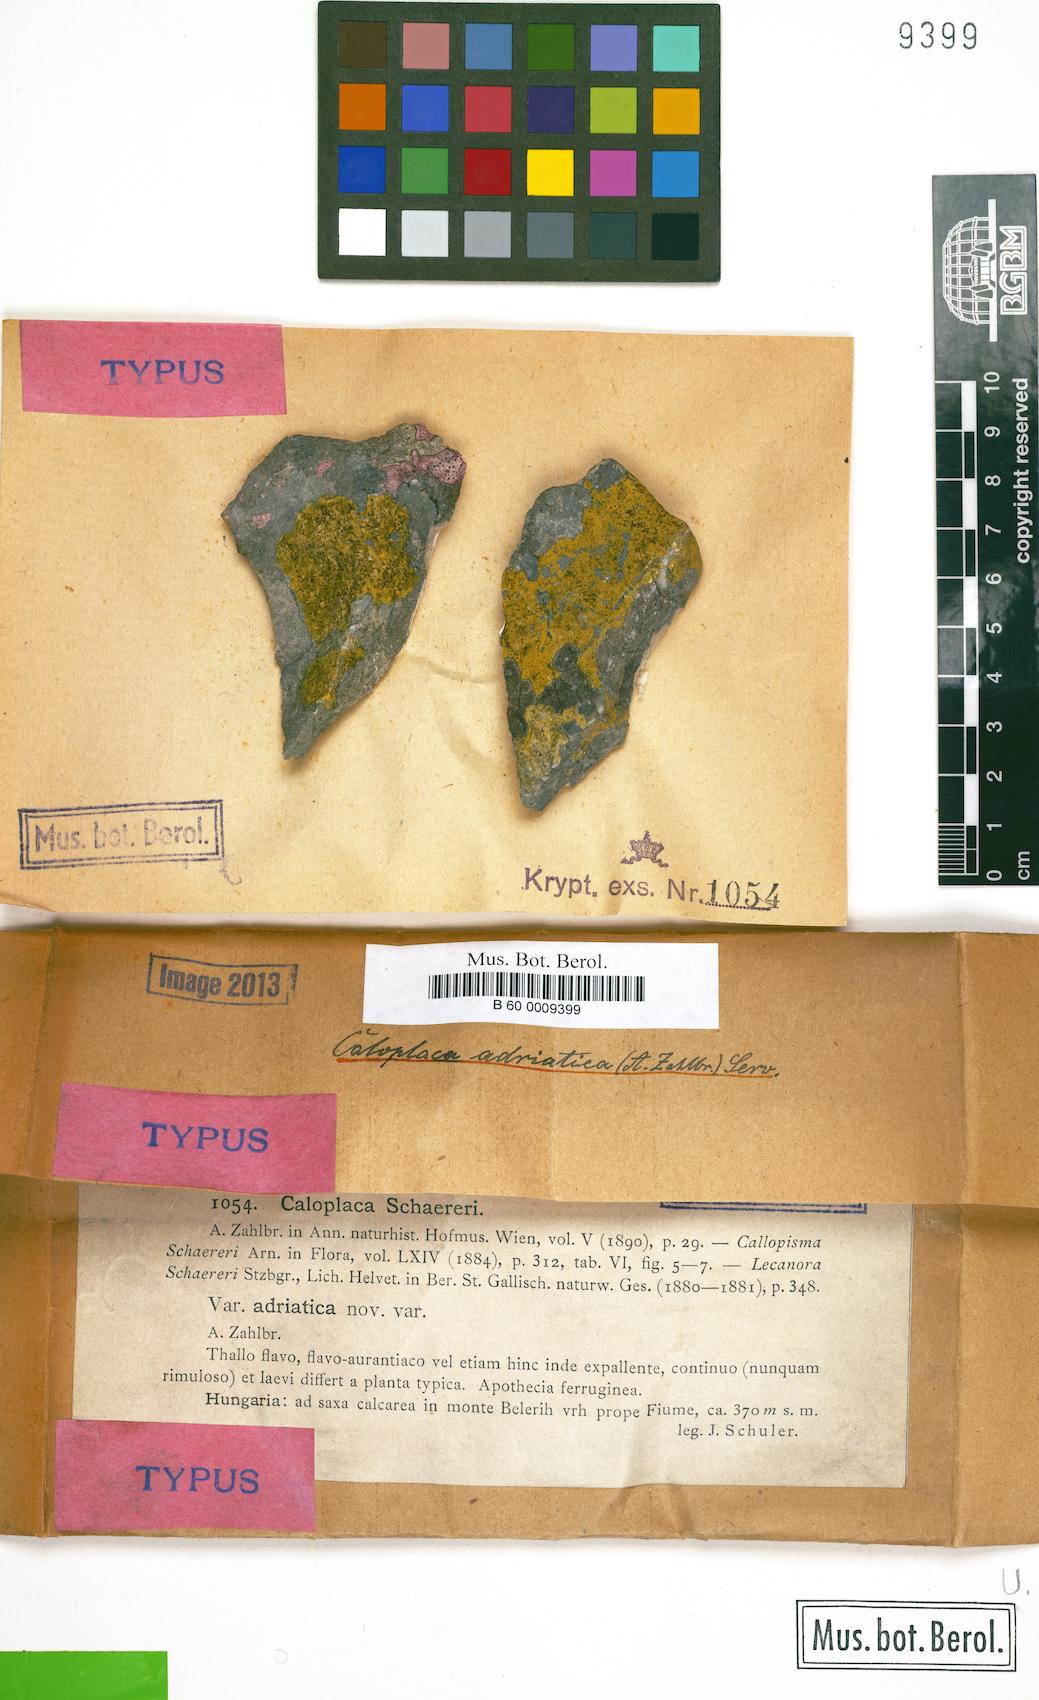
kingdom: Fungi
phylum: Ascomycota
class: Lecanoromycetes
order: Teloschistales
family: Teloschistaceae
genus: Caloplaca
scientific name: Caloplaca adriatica
